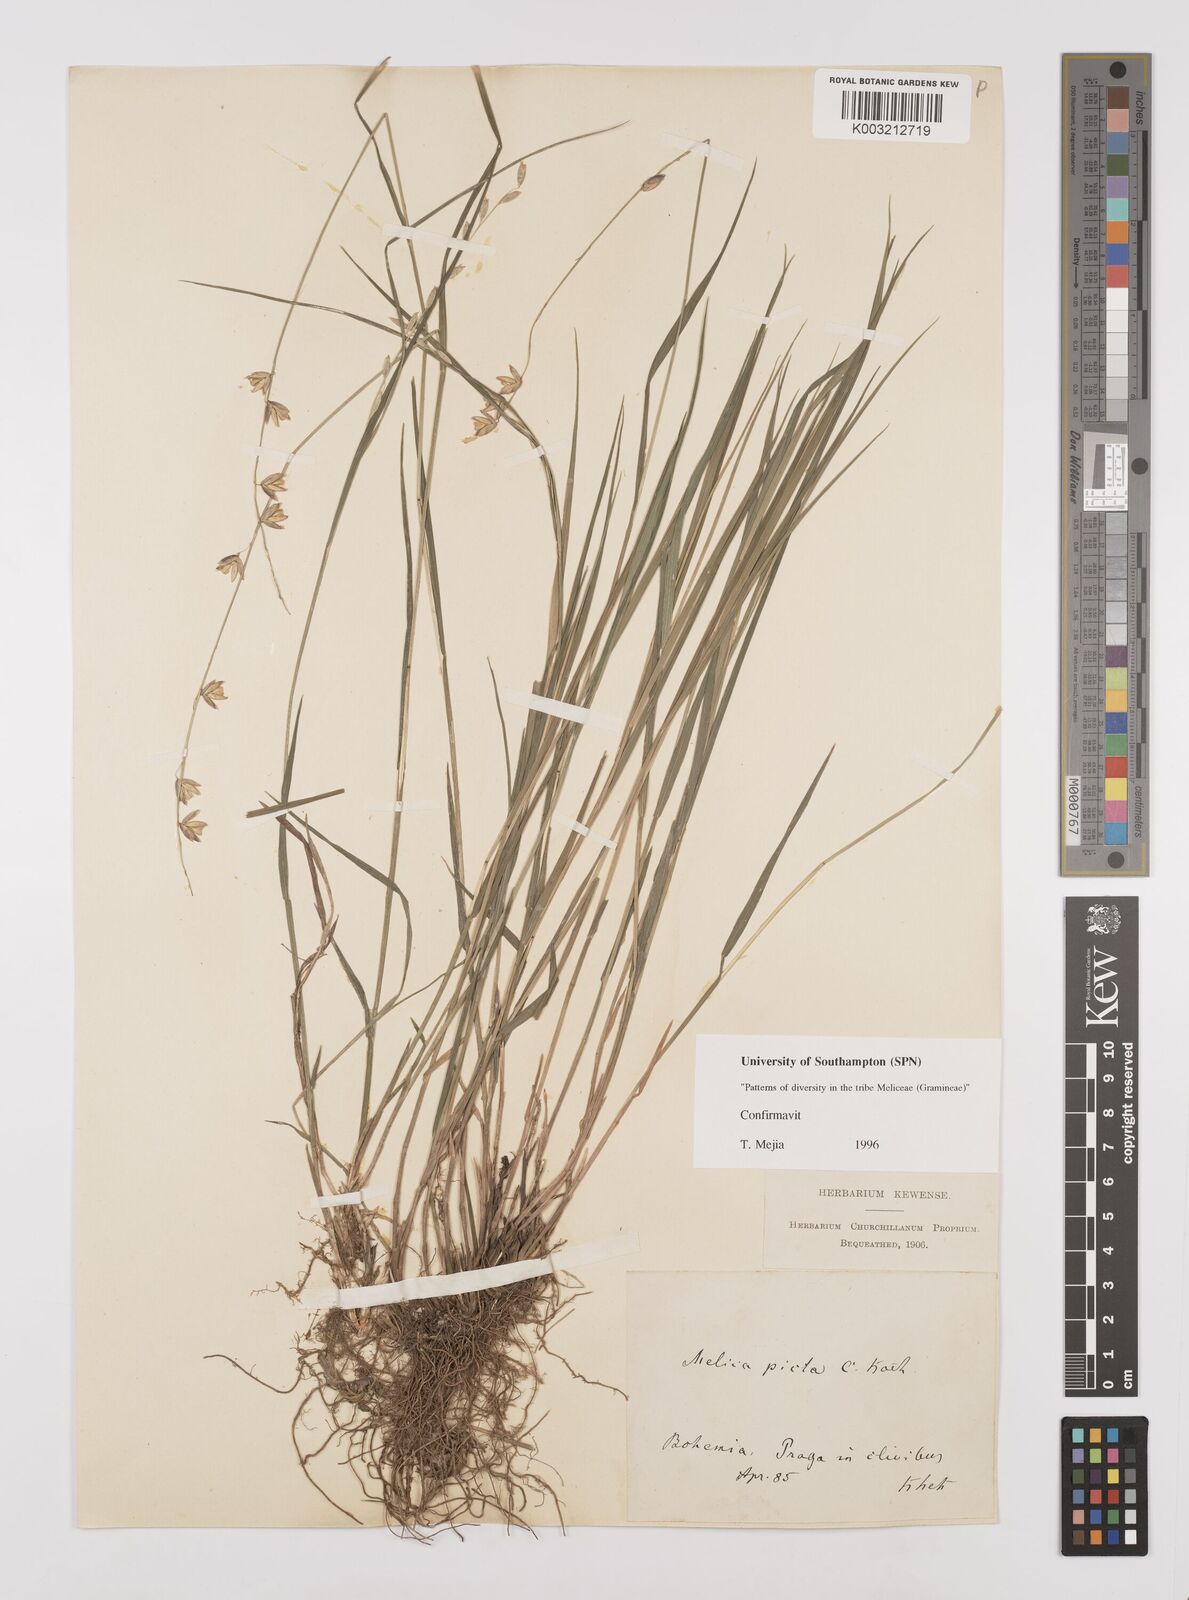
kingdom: Plantae
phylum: Tracheophyta
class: Liliopsida
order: Poales
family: Poaceae
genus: Melica
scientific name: Melica picta
